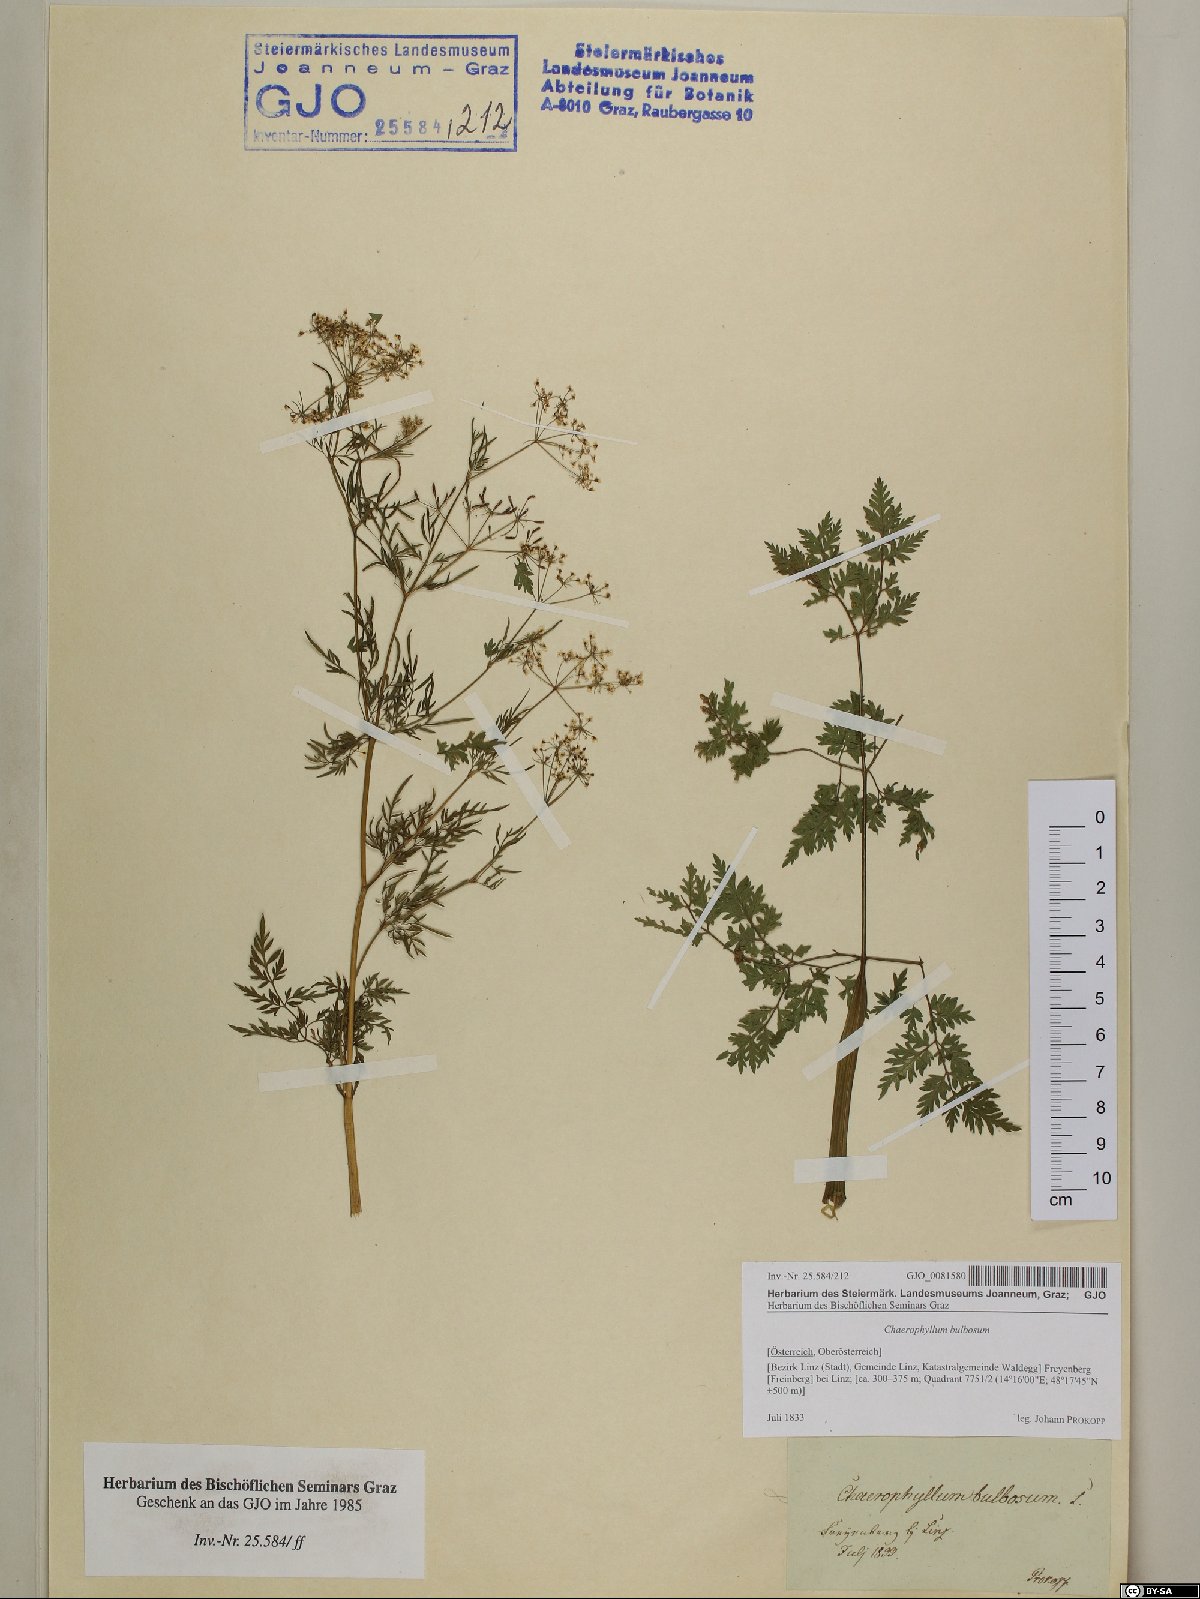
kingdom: Plantae
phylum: Tracheophyta
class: Magnoliopsida
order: Apiales
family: Apiaceae
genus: Chaerophyllum
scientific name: Chaerophyllum bulbosum
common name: Bulbous chervil
